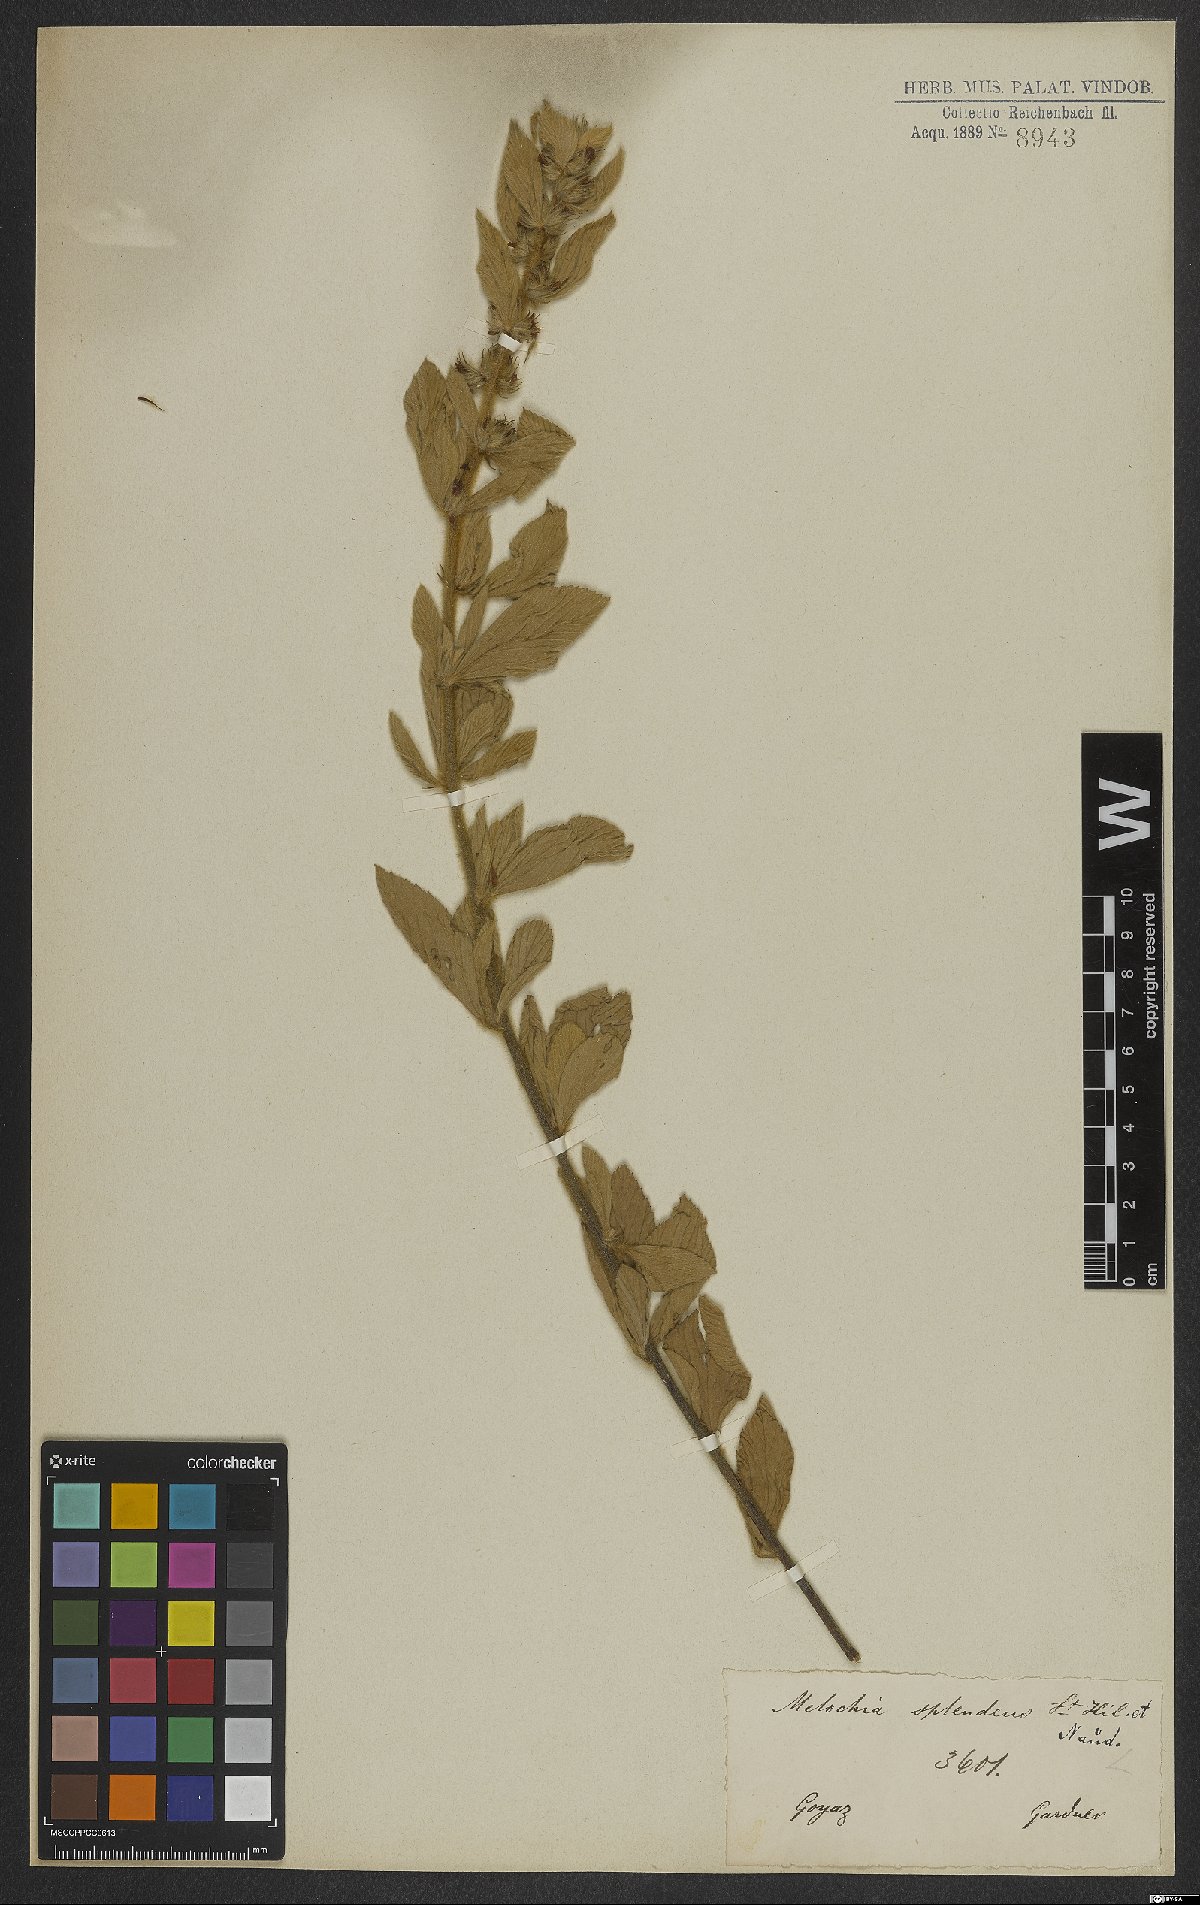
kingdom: Plantae
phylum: Tracheophyta
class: Magnoliopsida
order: Malvales
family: Malvaceae
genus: Melochia
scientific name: Melochia splendens
